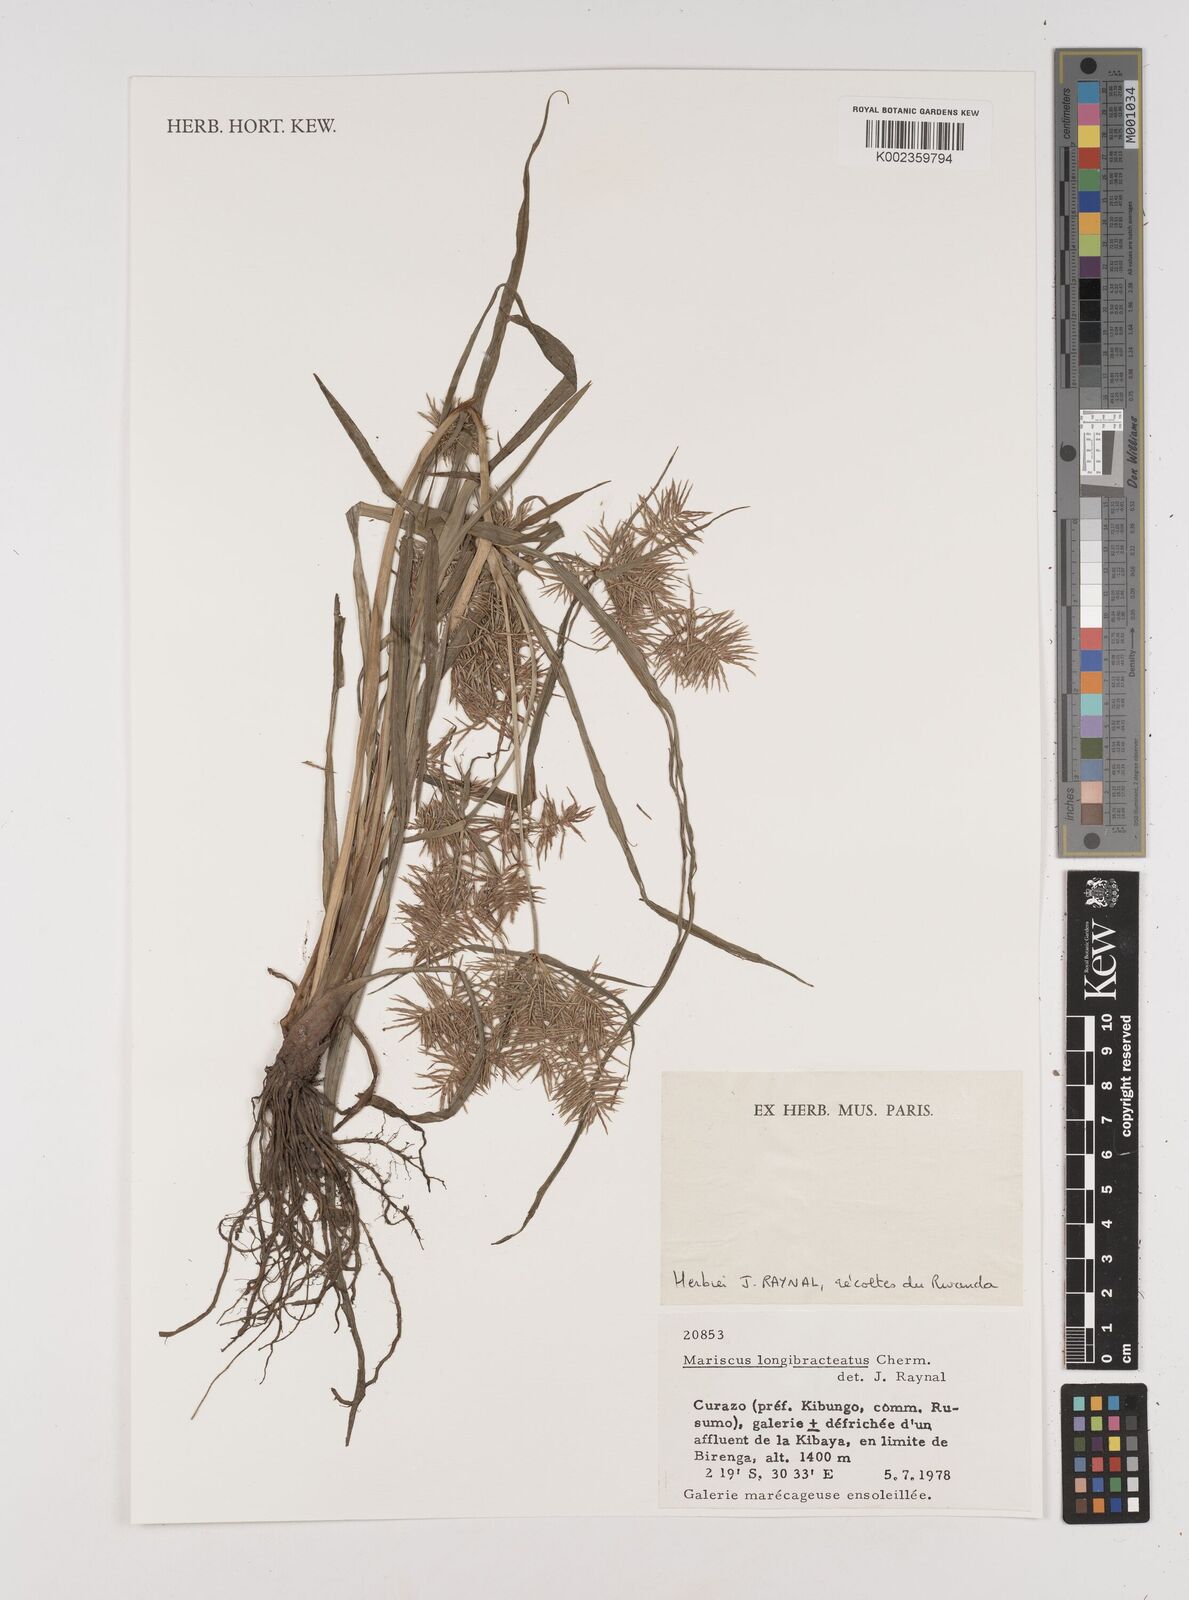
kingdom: Plantae
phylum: Tracheophyta
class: Liliopsida
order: Poales
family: Cyperaceae
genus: Cyperus
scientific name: Cyperus distans
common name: Slender cyperus
